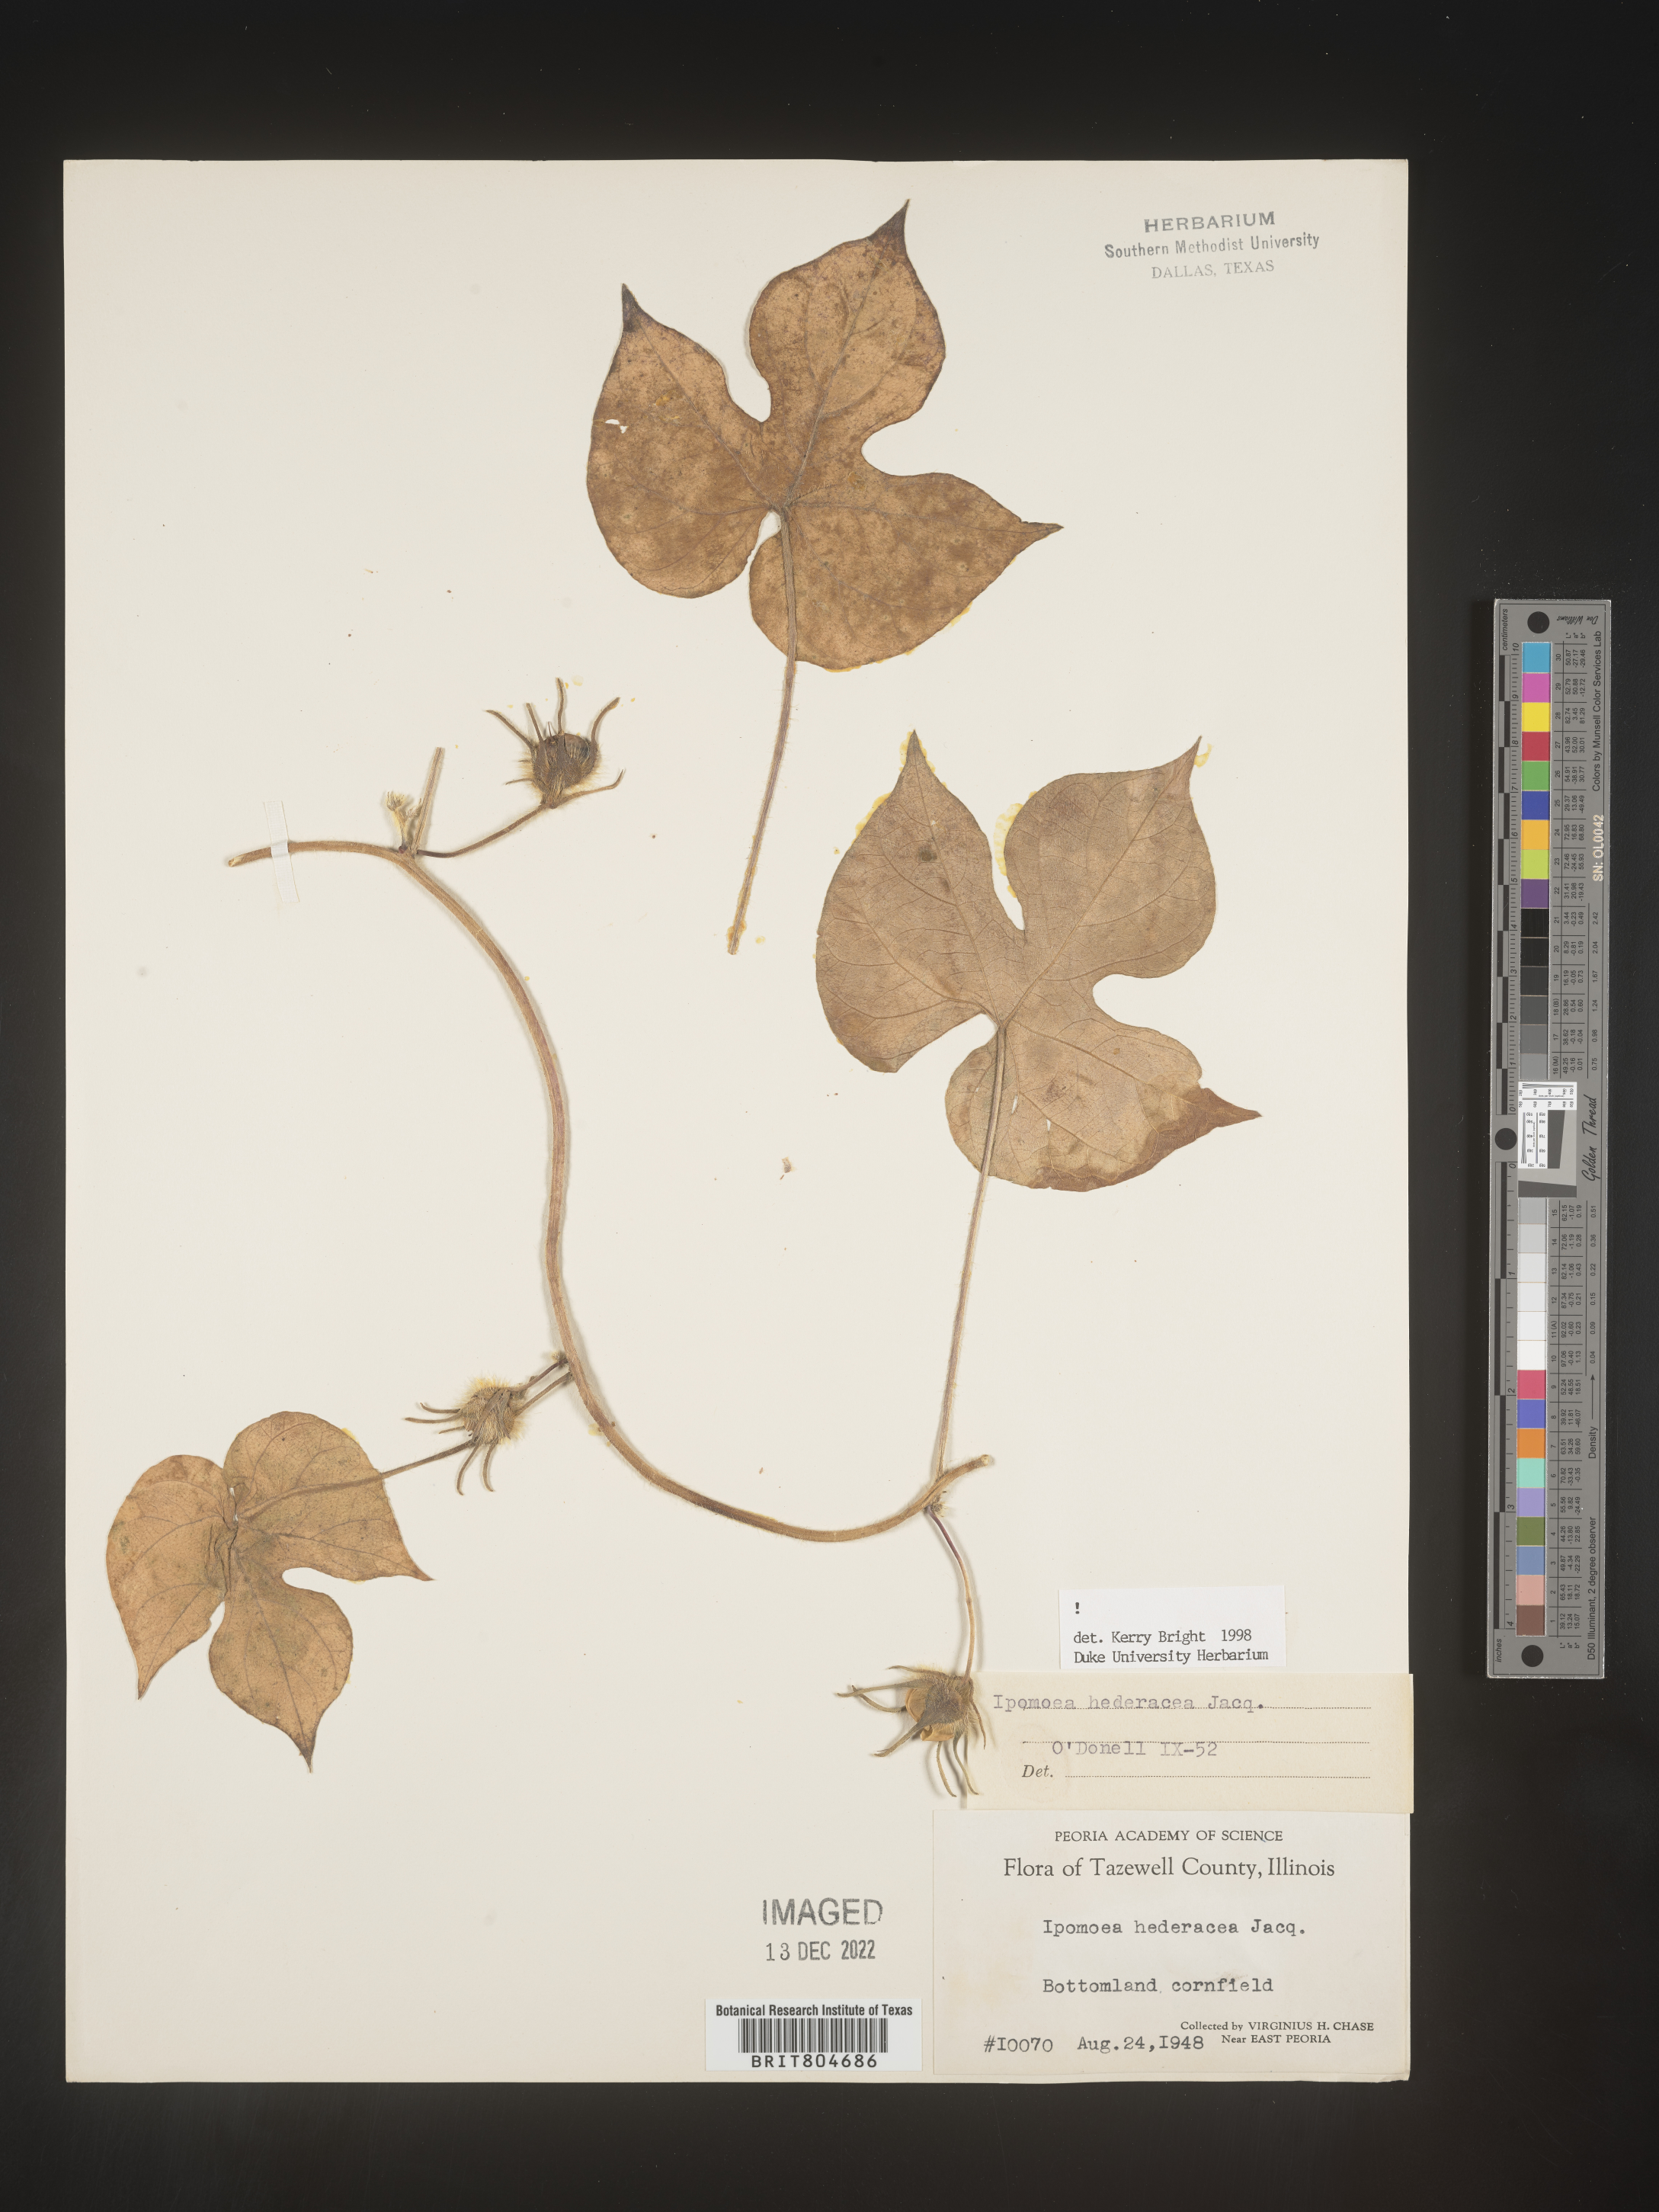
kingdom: Plantae
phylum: Tracheophyta
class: Magnoliopsida
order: Solanales
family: Convolvulaceae
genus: Ipomoea
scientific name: Ipomoea hederacea
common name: Ivy-leaved morning-glory
